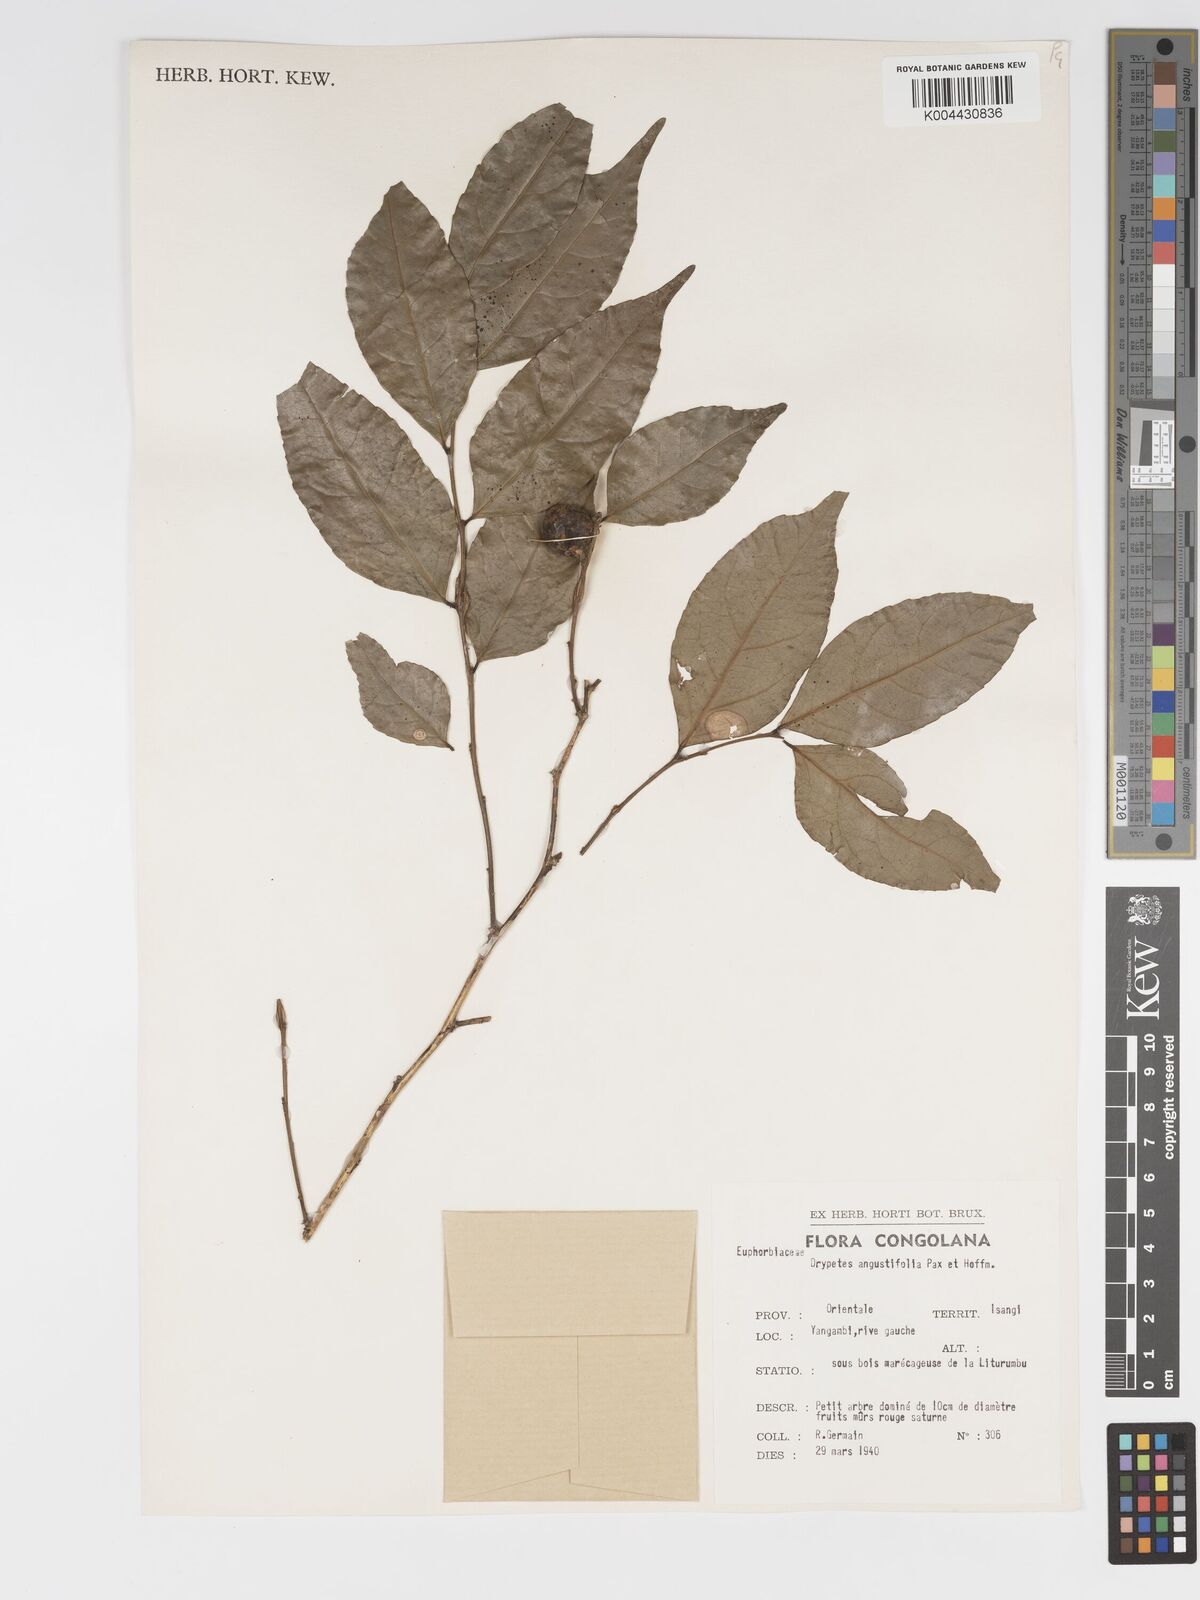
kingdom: Plantae
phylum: Tracheophyta
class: Magnoliopsida
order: Malpighiales
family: Putranjivaceae
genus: Drypetes
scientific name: Drypetes angustifolia
